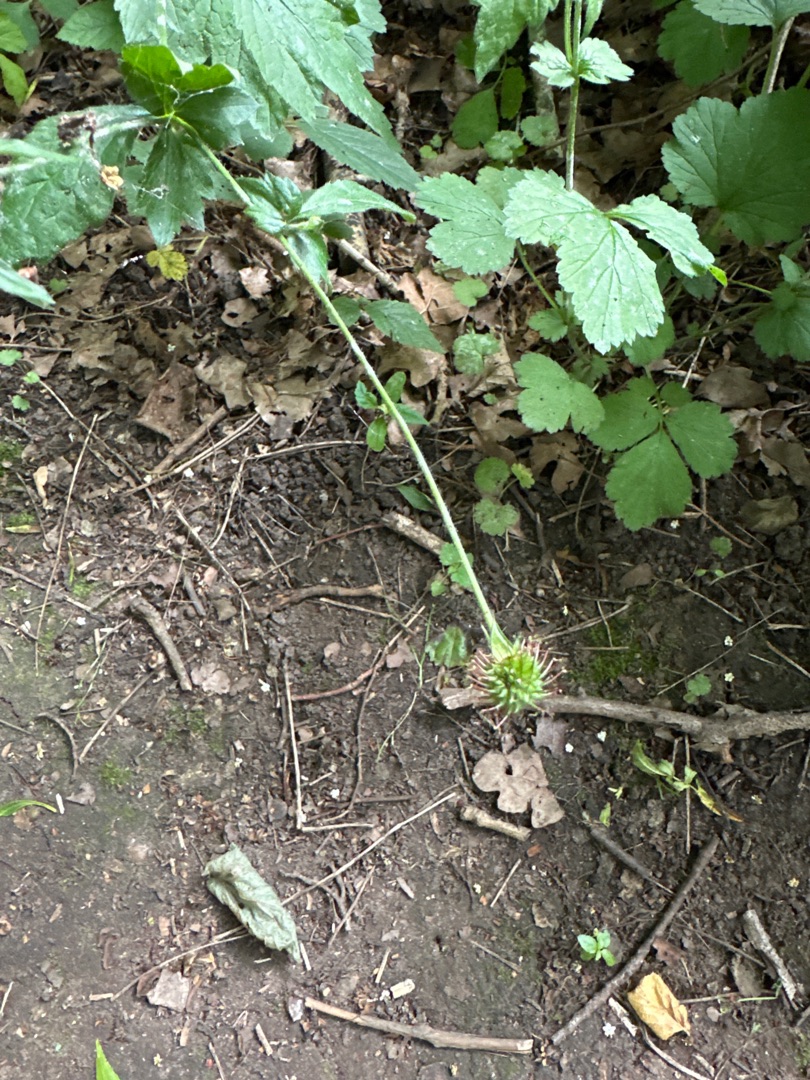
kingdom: Plantae
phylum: Tracheophyta
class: Magnoliopsida
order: Rosales
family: Rosaceae
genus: Geum
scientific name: Geum urbanum
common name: Feber-nellikerod
